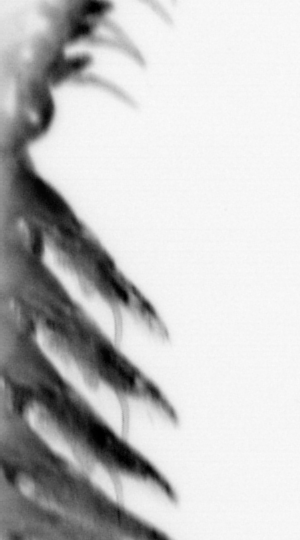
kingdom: Animalia
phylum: Annelida
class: Polychaeta
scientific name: Polychaeta
